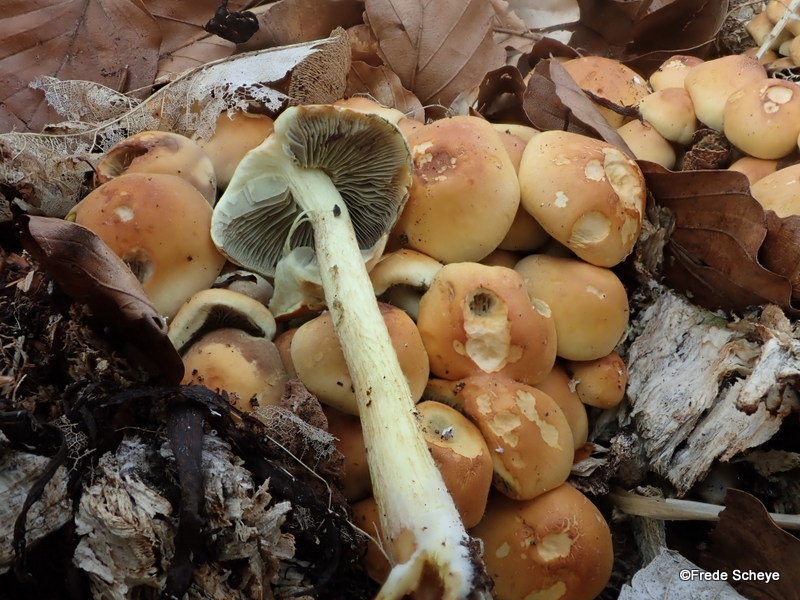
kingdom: Fungi
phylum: Basidiomycota
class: Agaricomycetes
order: Agaricales
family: Strophariaceae
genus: Hypholoma
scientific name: Hypholoma fasciculare
